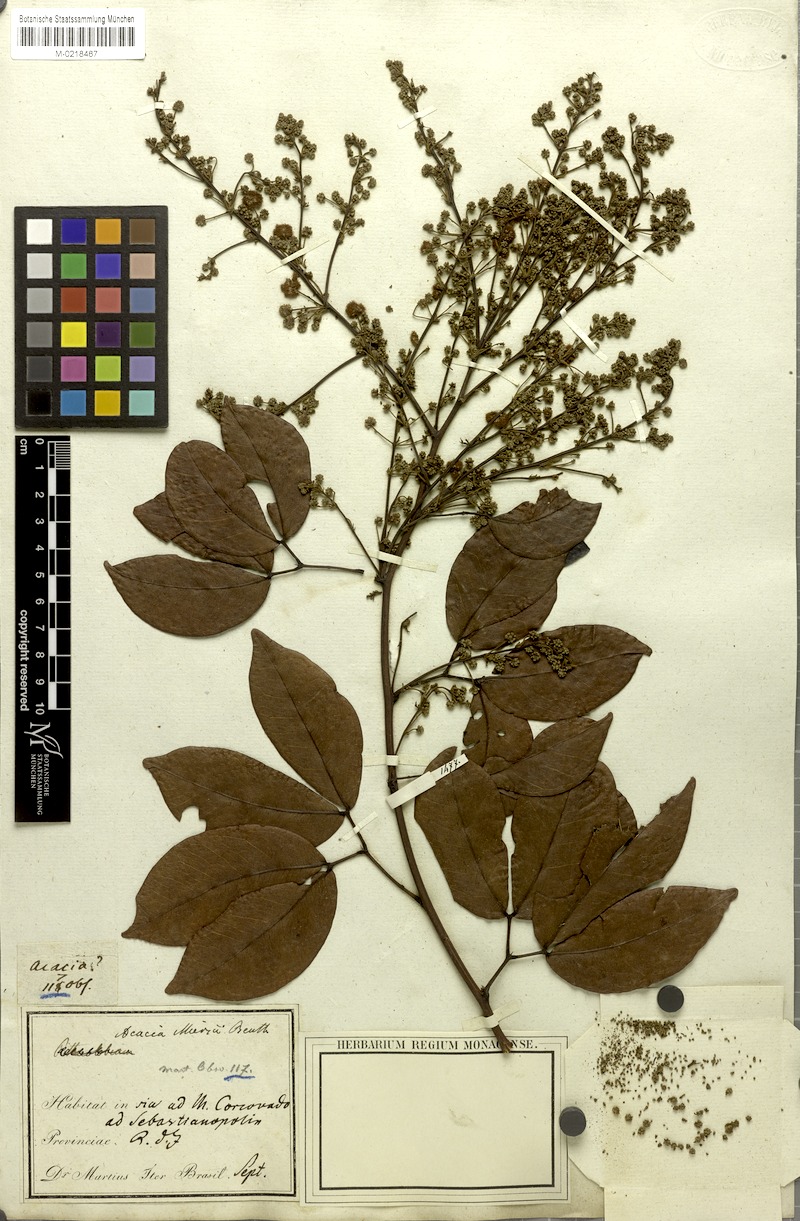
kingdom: Plantae
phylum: Tracheophyta
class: Magnoliopsida
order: Fabales
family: Fabaceae
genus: Parasenegalia
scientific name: Parasenegalia miersii
